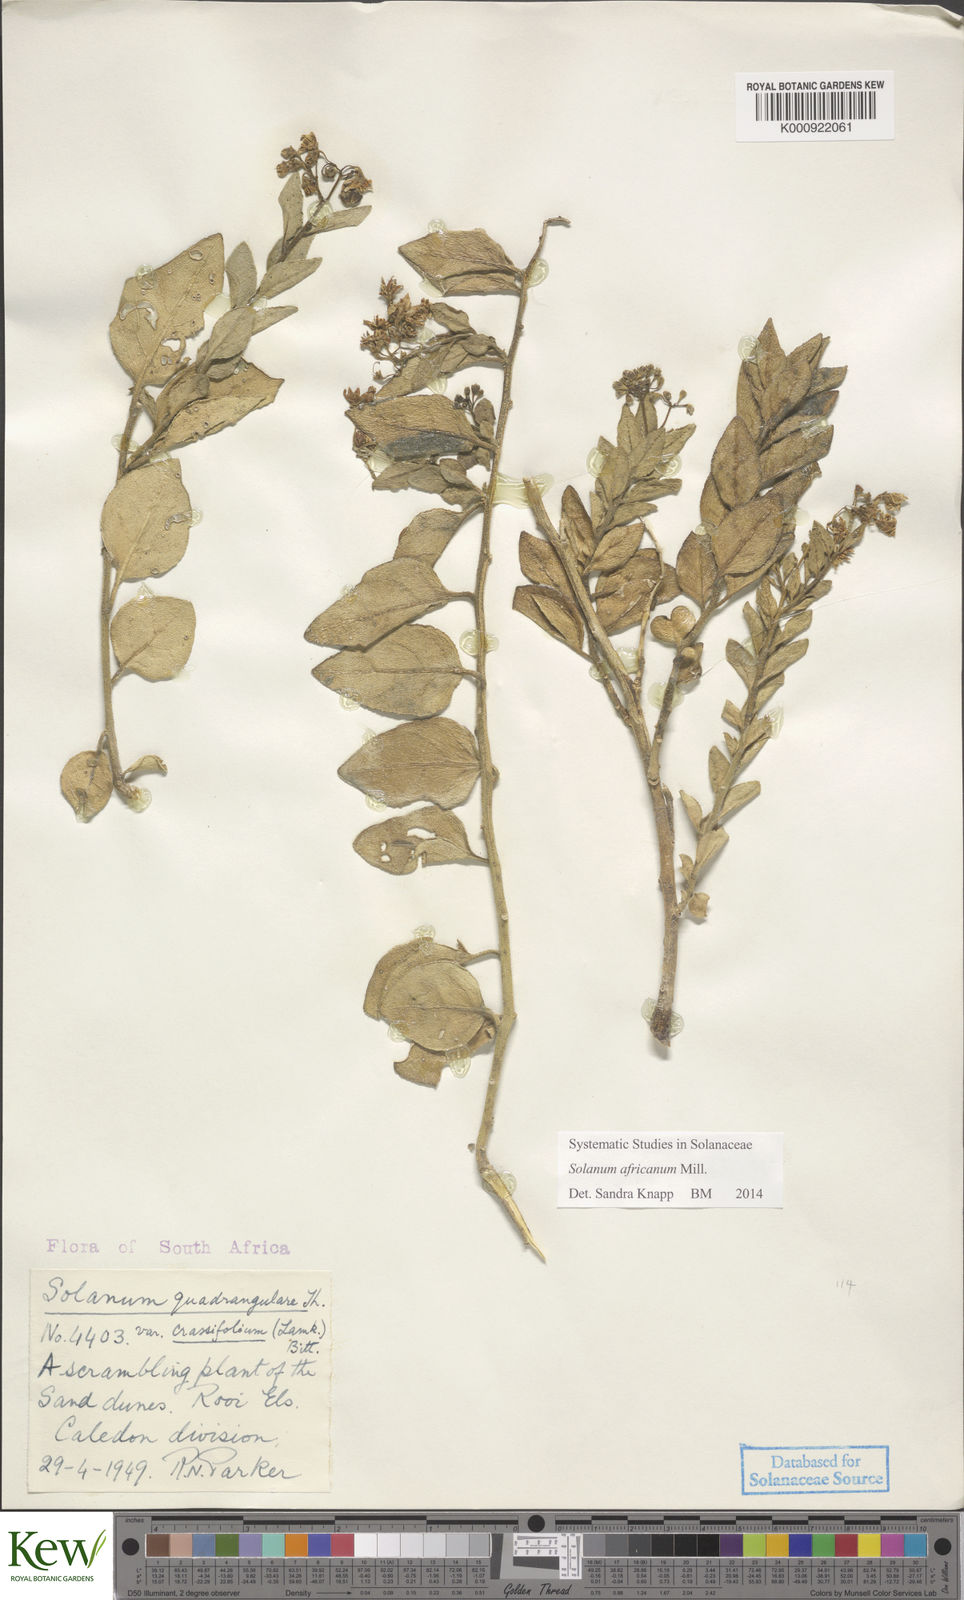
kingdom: Plantae
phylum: Tracheophyta
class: Magnoliopsida
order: Solanales
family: Solanaceae
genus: Solanum
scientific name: Solanum africanum
